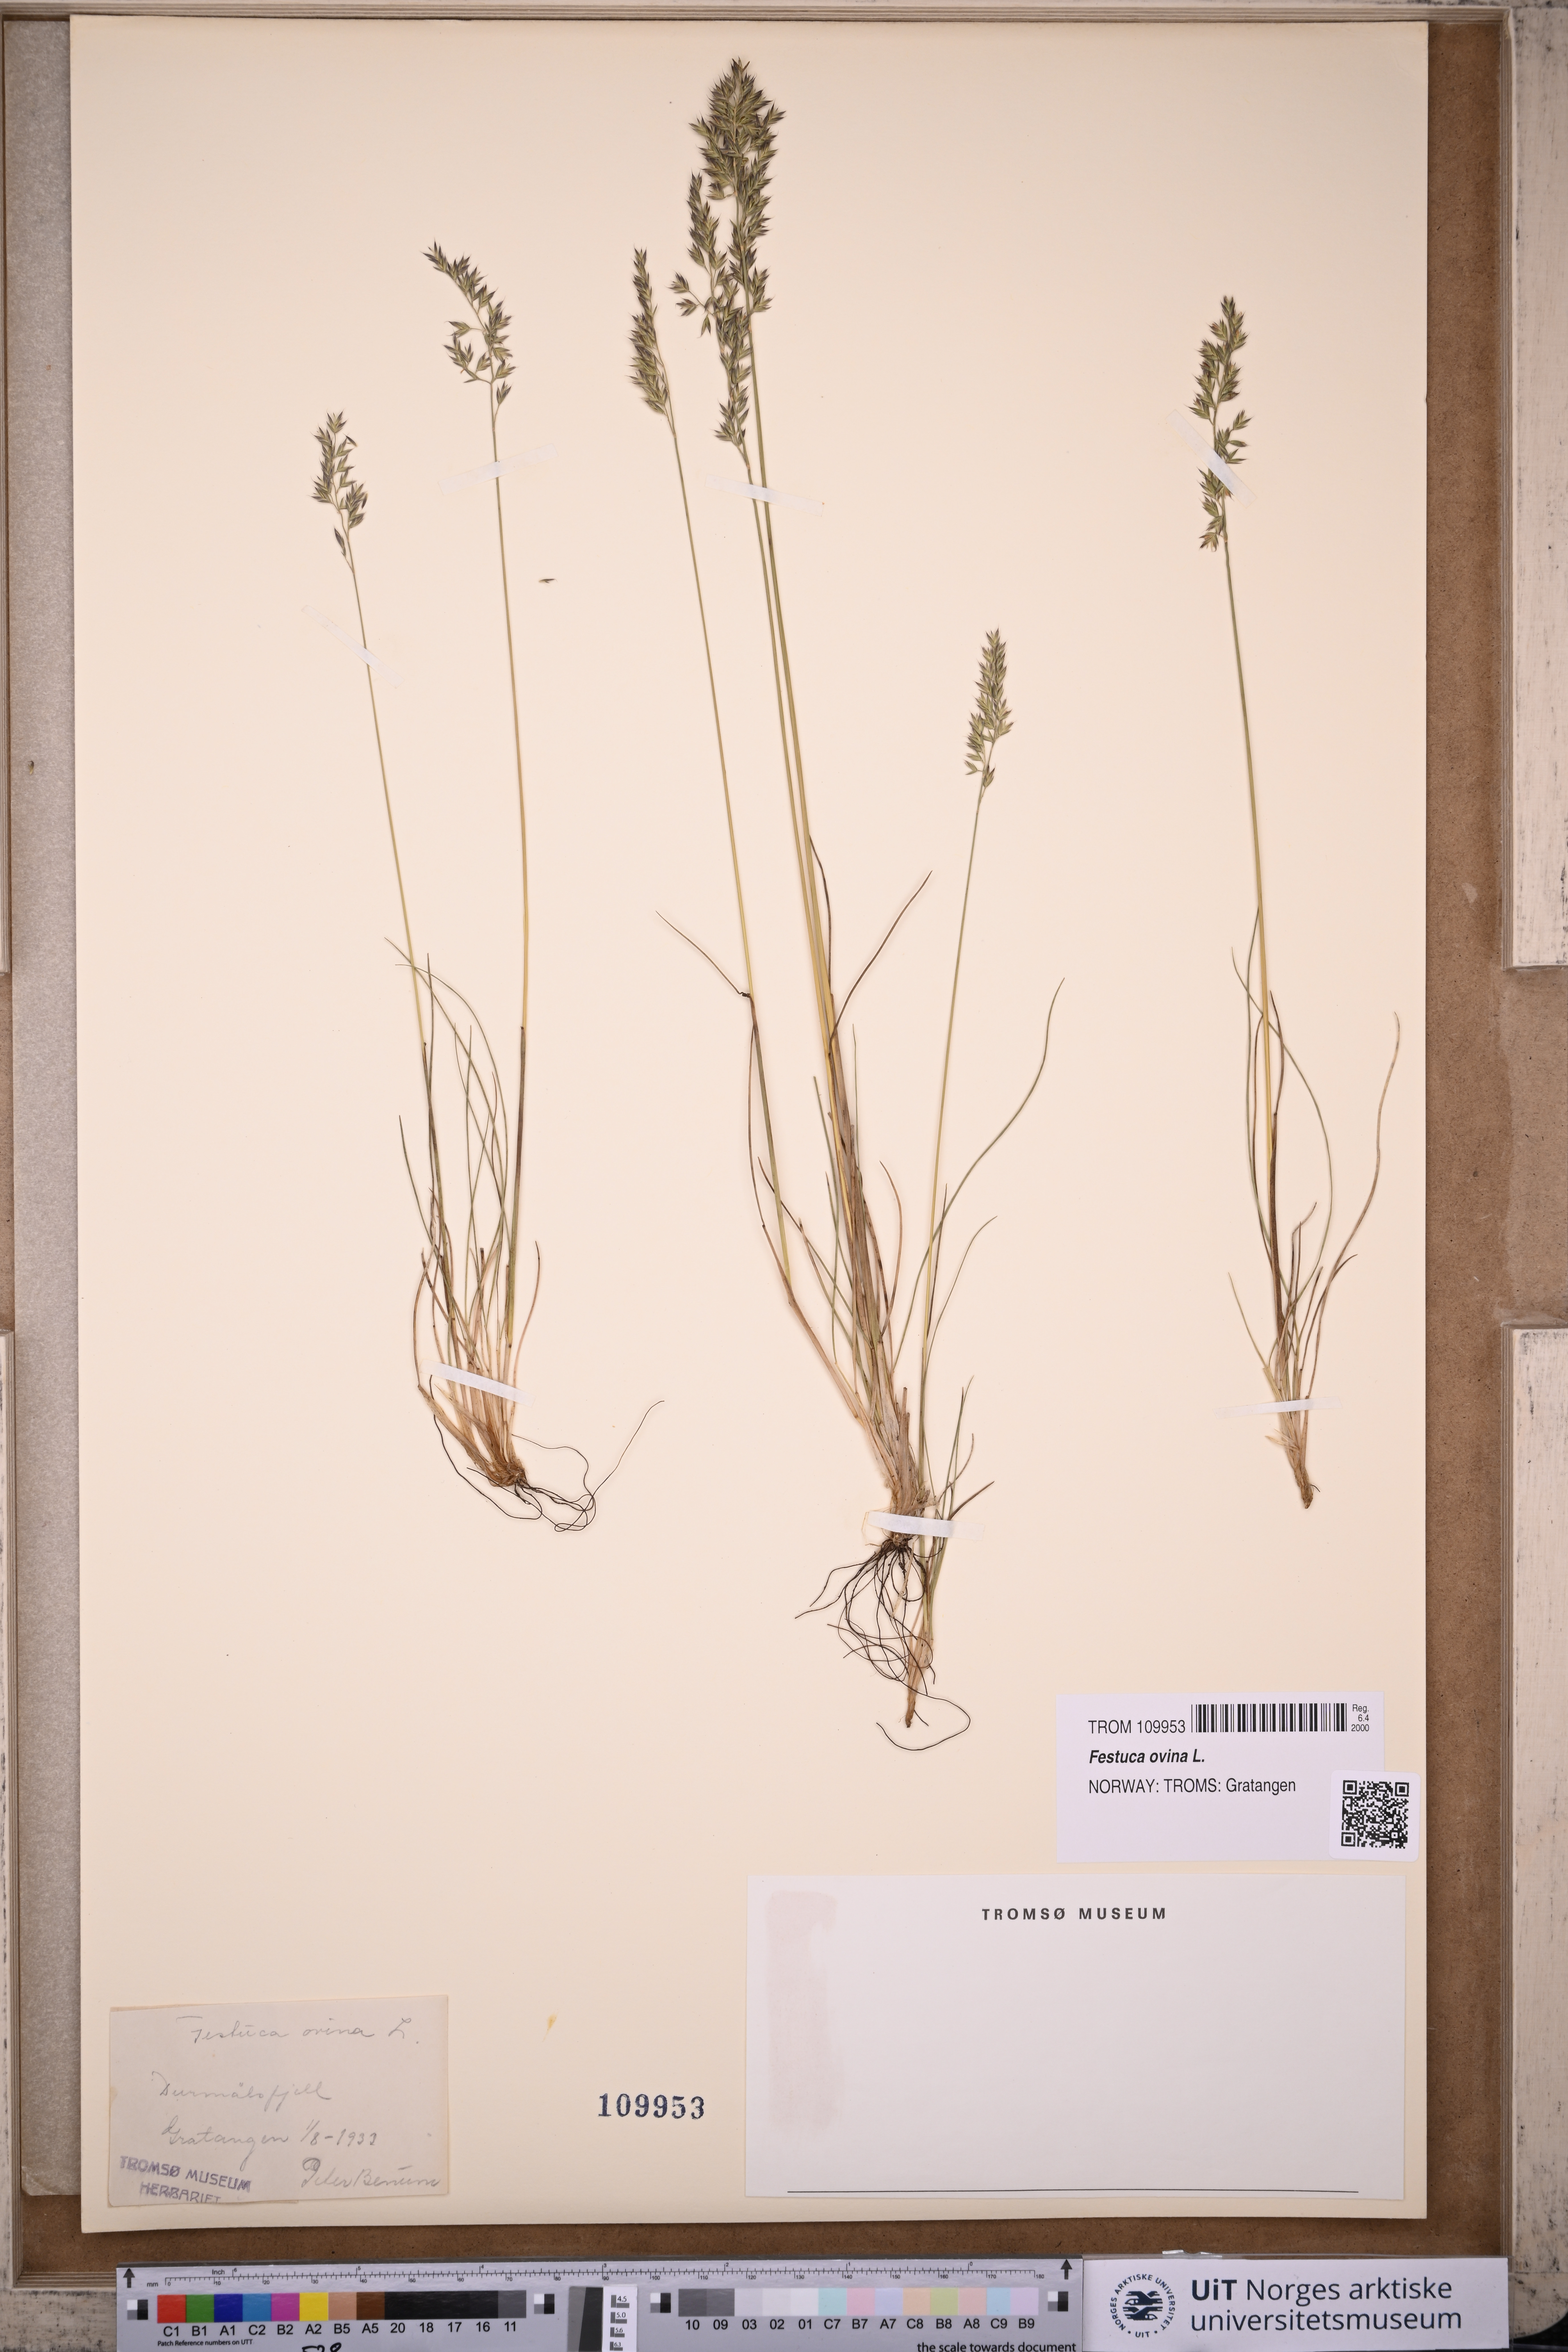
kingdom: Plantae
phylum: Tracheophyta
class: Liliopsida
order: Poales
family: Poaceae
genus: Festuca
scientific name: Festuca ovina
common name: Sheep fescue
